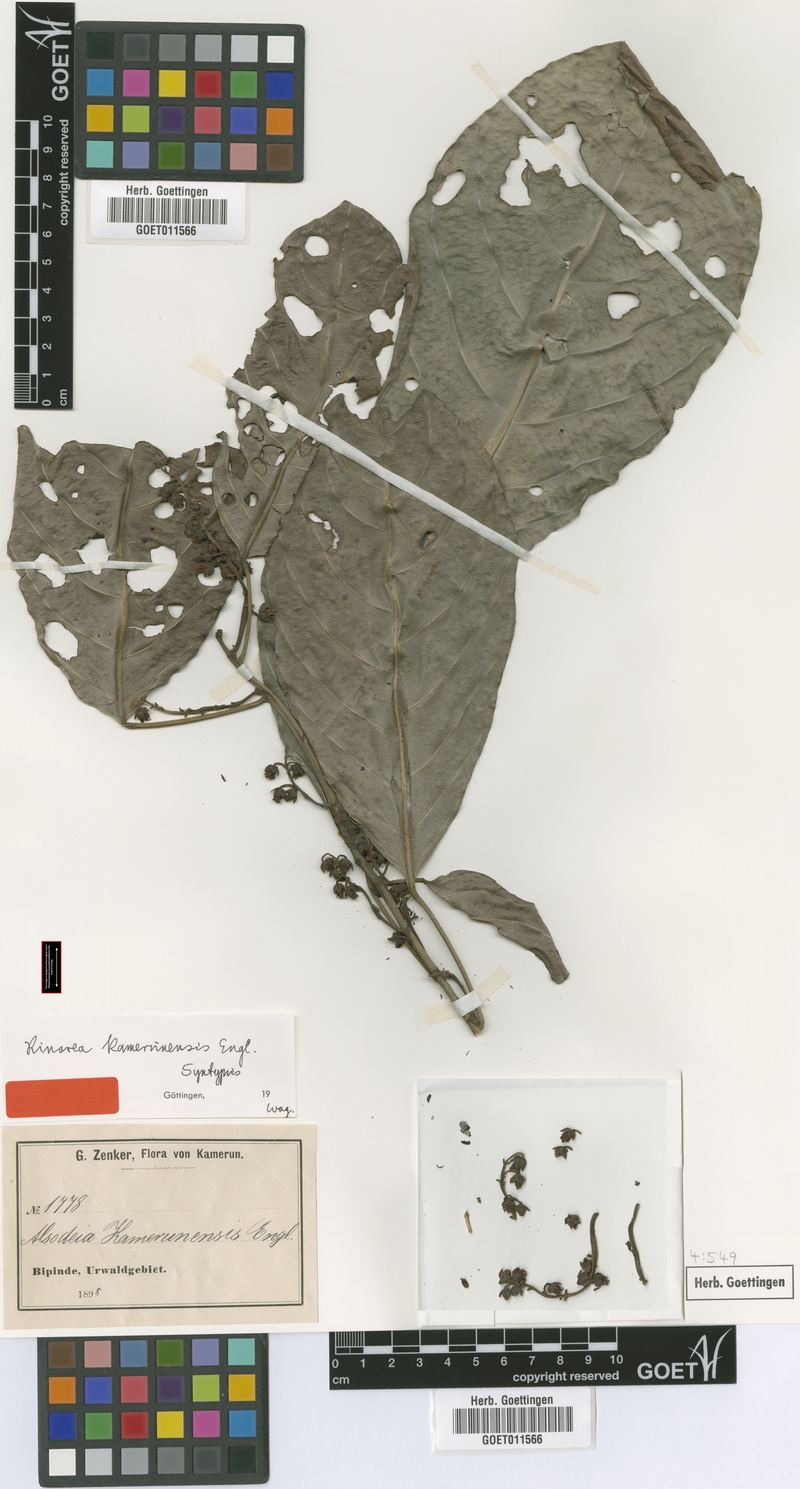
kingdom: Plantae
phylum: Tracheophyta
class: Magnoliopsida
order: Malpighiales
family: Violaceae
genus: Rinorea
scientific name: Rinorea kamerunensis
